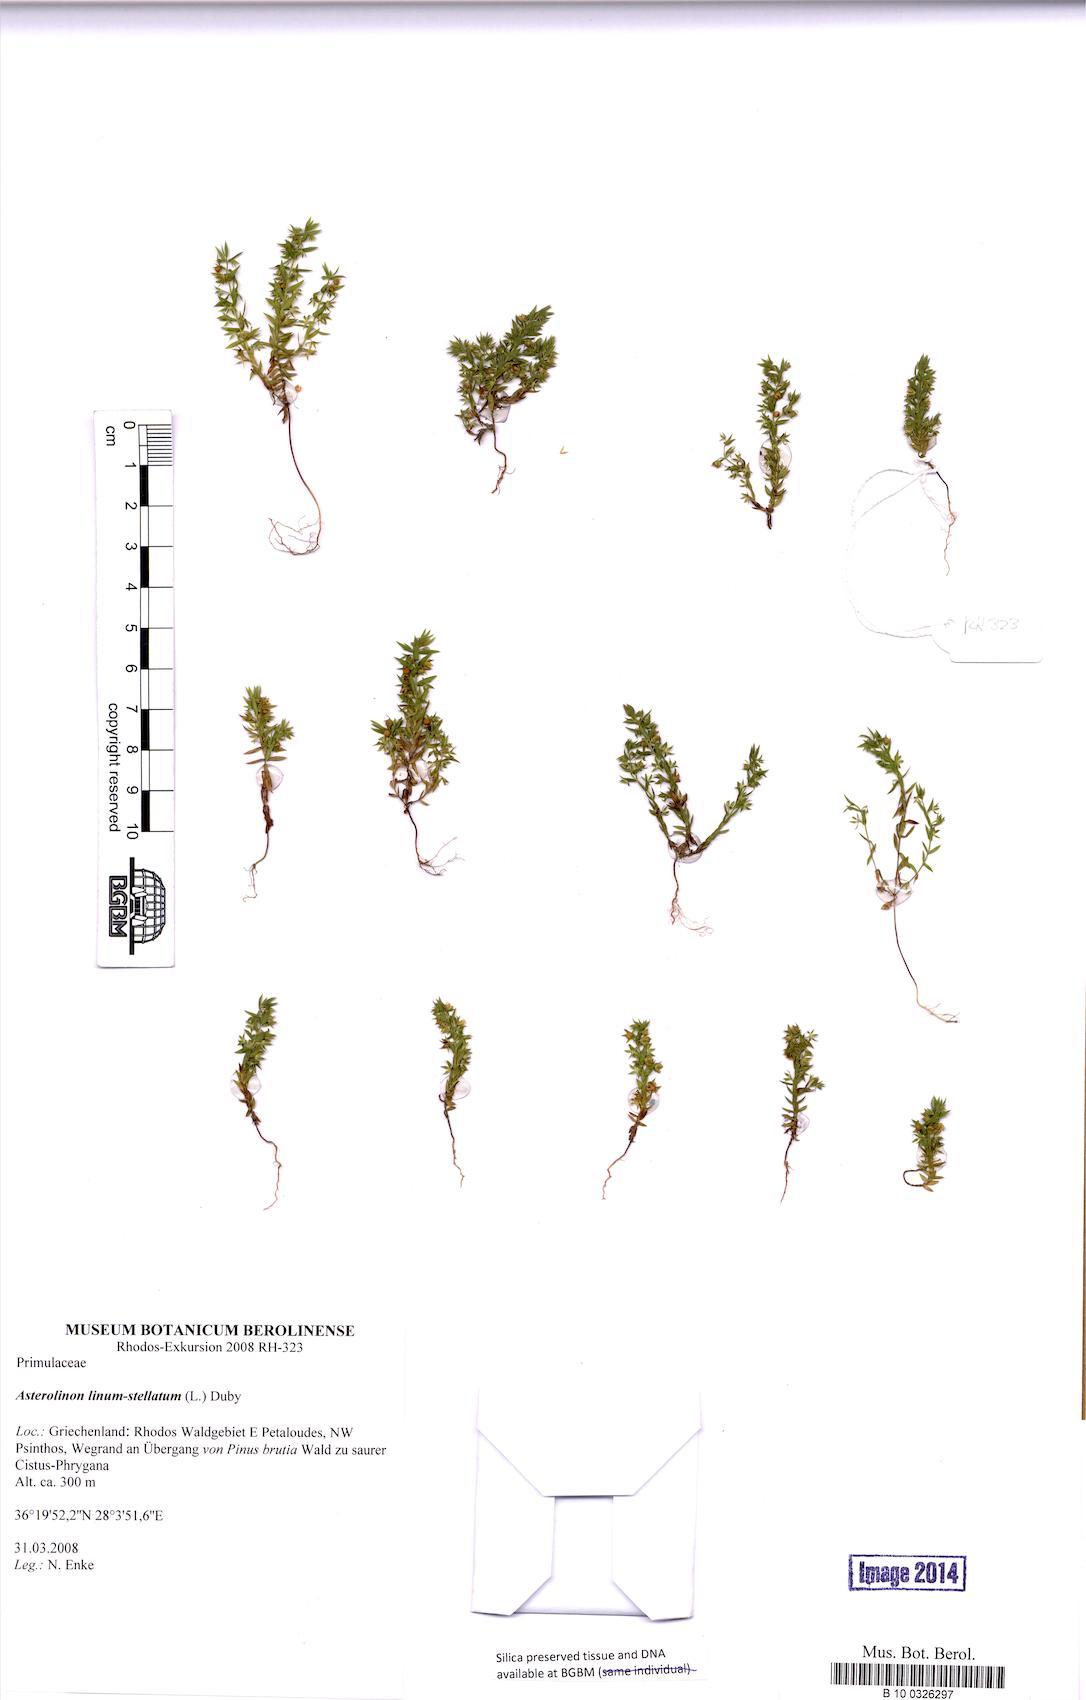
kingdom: Plantae
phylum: Tracheophyta
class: Magnoliopsida
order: Ericales
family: Primulaceae
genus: Lysimachia
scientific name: Lysimachia linum-stellatum
